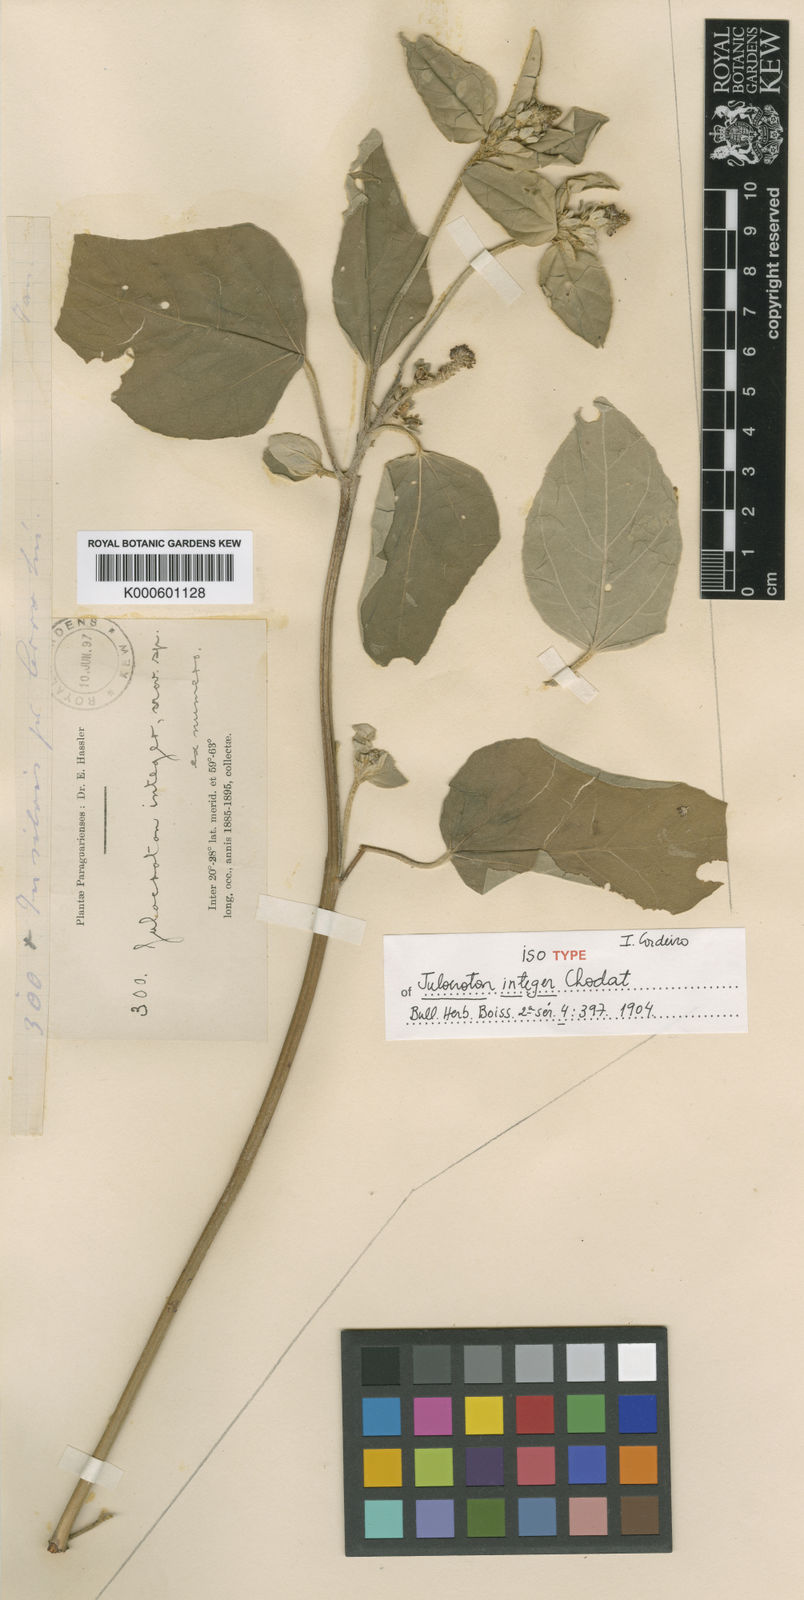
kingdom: Plantae
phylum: Tracheophyta
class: Magnoliopsida
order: Malpighiales
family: Euphorbiaceae
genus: Croton
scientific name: Croton argenteus
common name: Silver july croton
